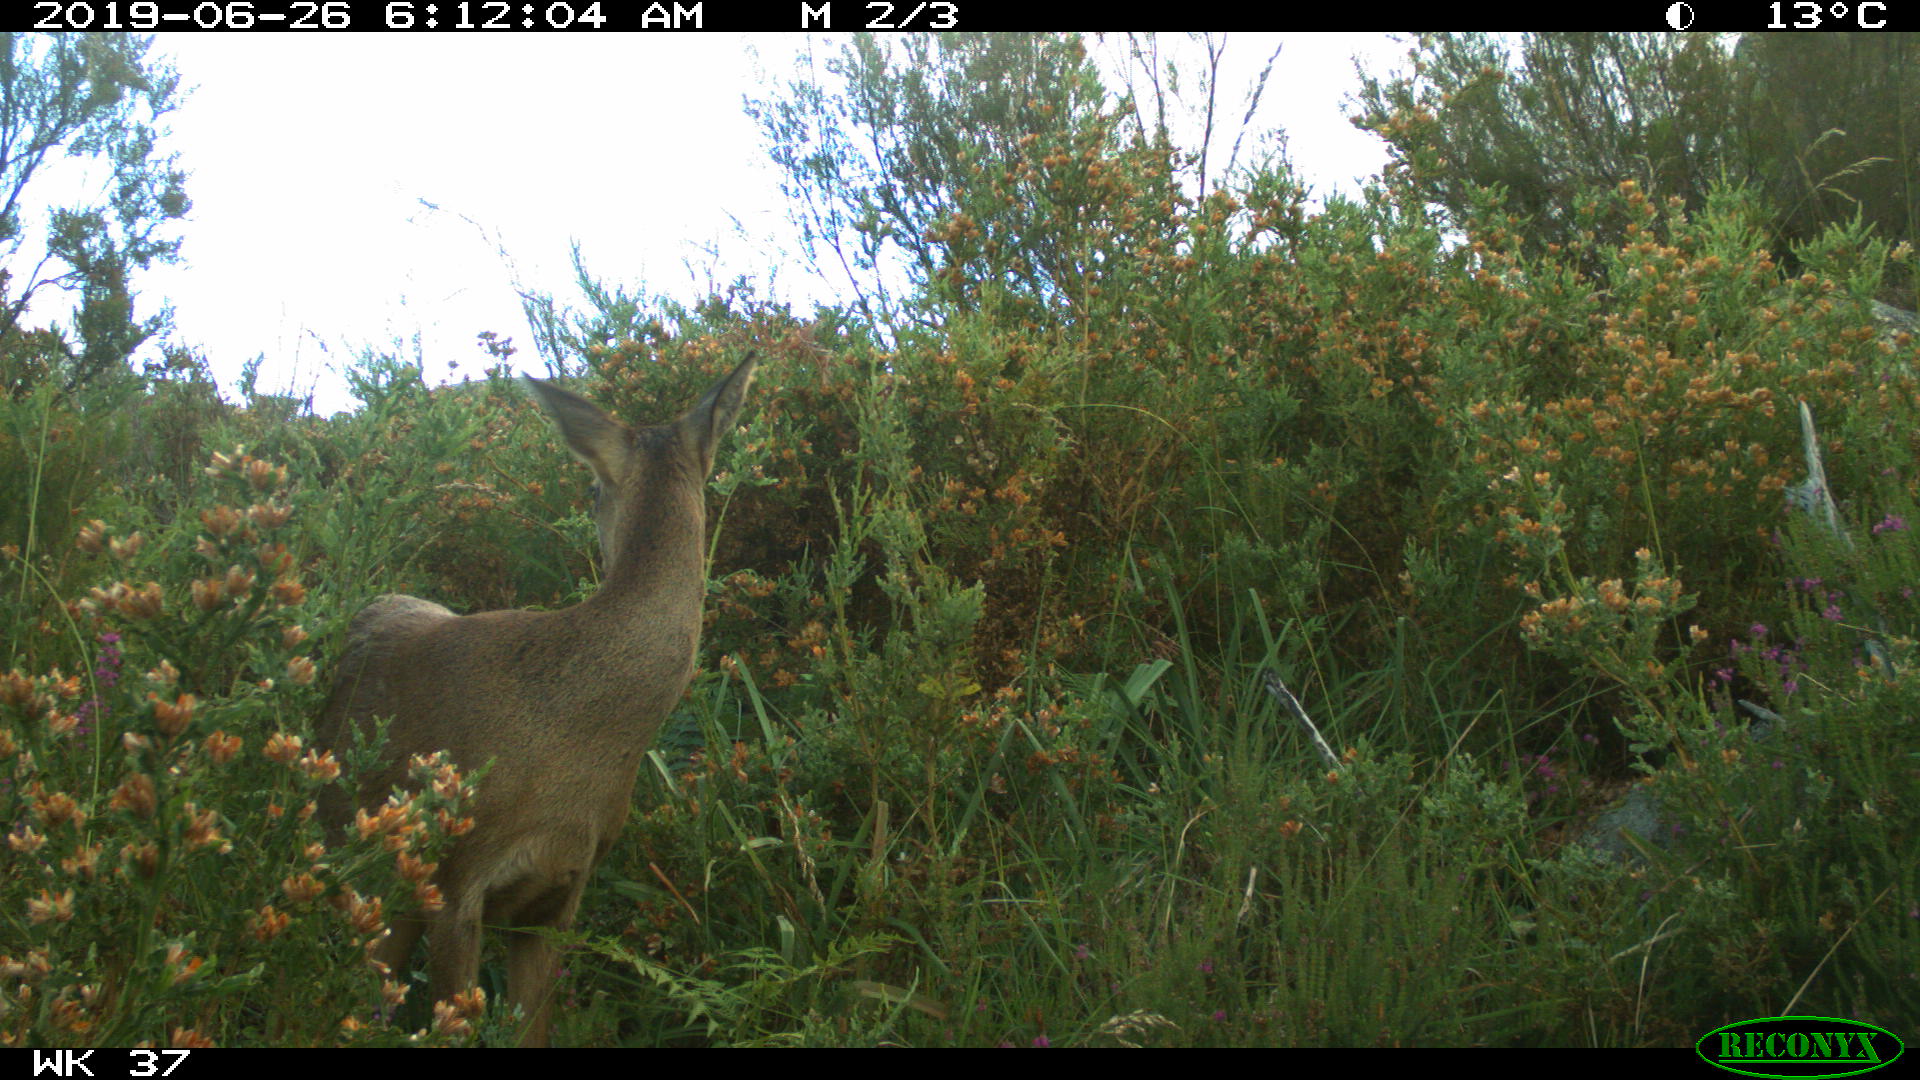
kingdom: Animalia
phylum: Chordata
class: Mammalia
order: Artiodactyla
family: Cervidae
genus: Capreolus
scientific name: Capreolus capreolus
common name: Western roe deer
